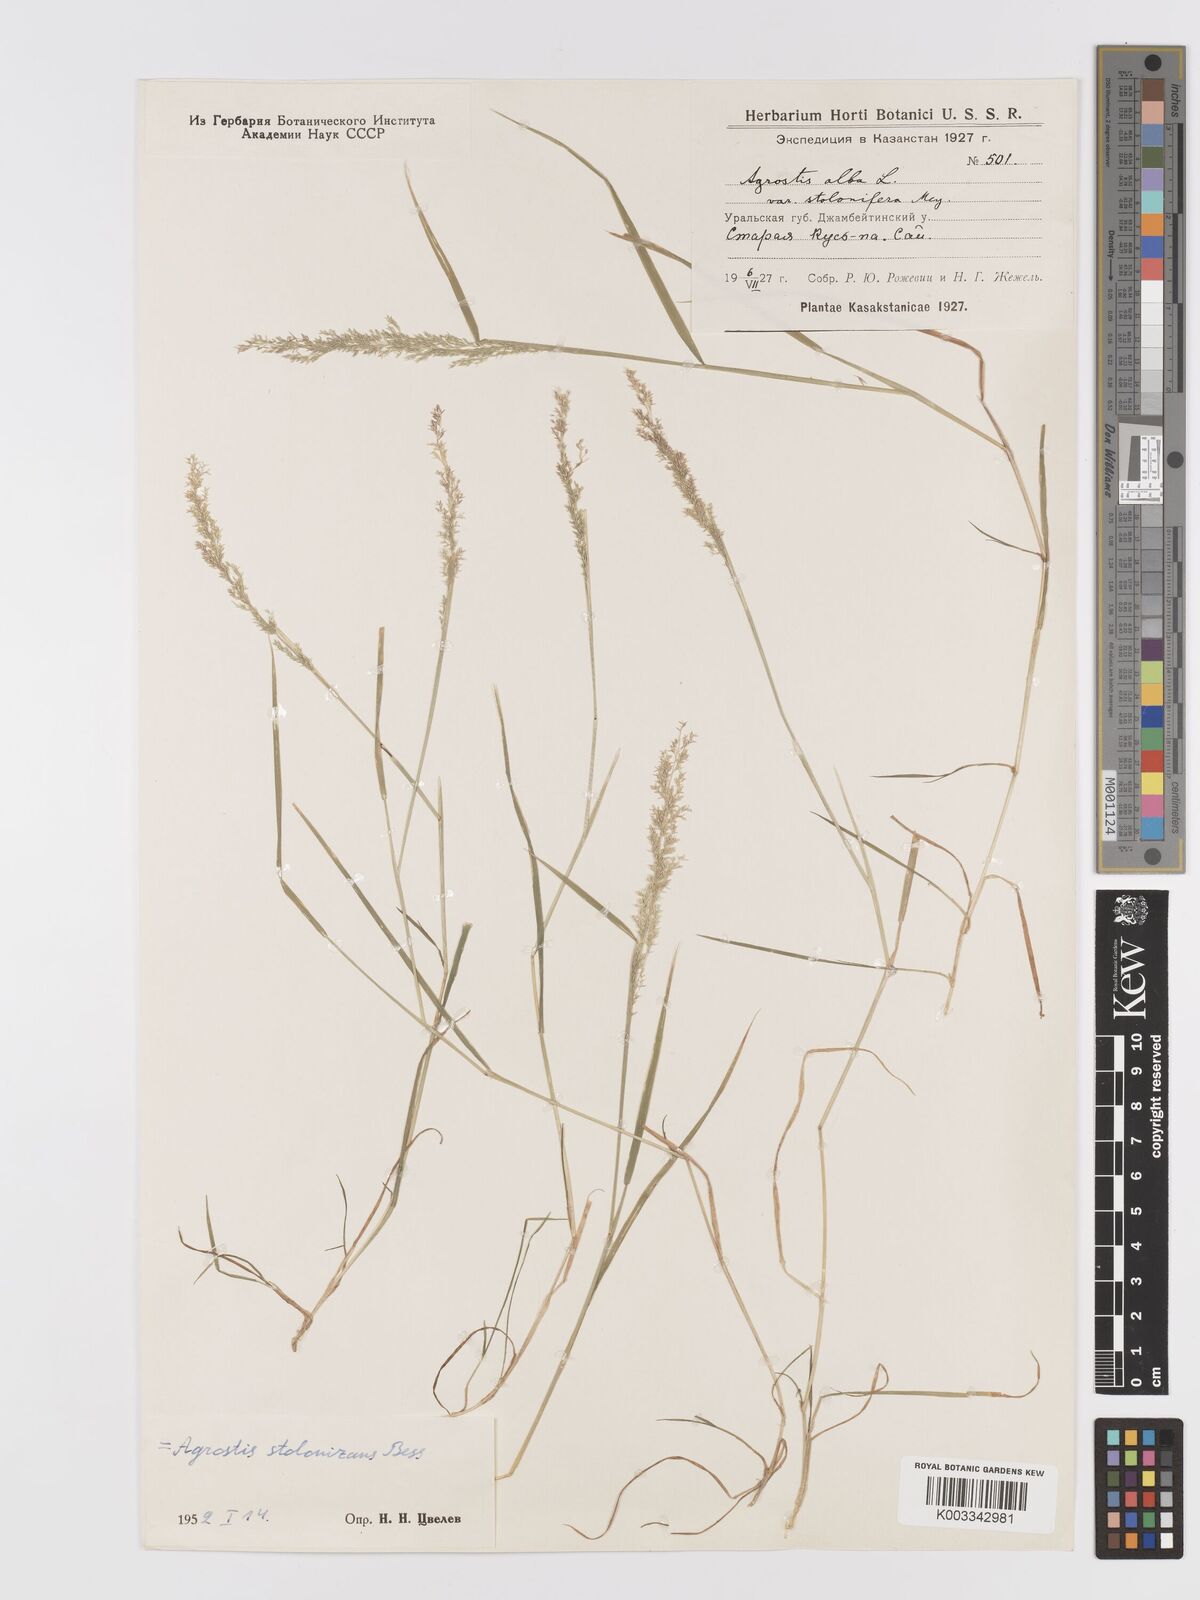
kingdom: Plantae
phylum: Tracheophyta
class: Liliopsida
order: Poales
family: Poaceae
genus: Agrostis
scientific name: Agrostis stolonifera
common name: Creeping bentgrass
